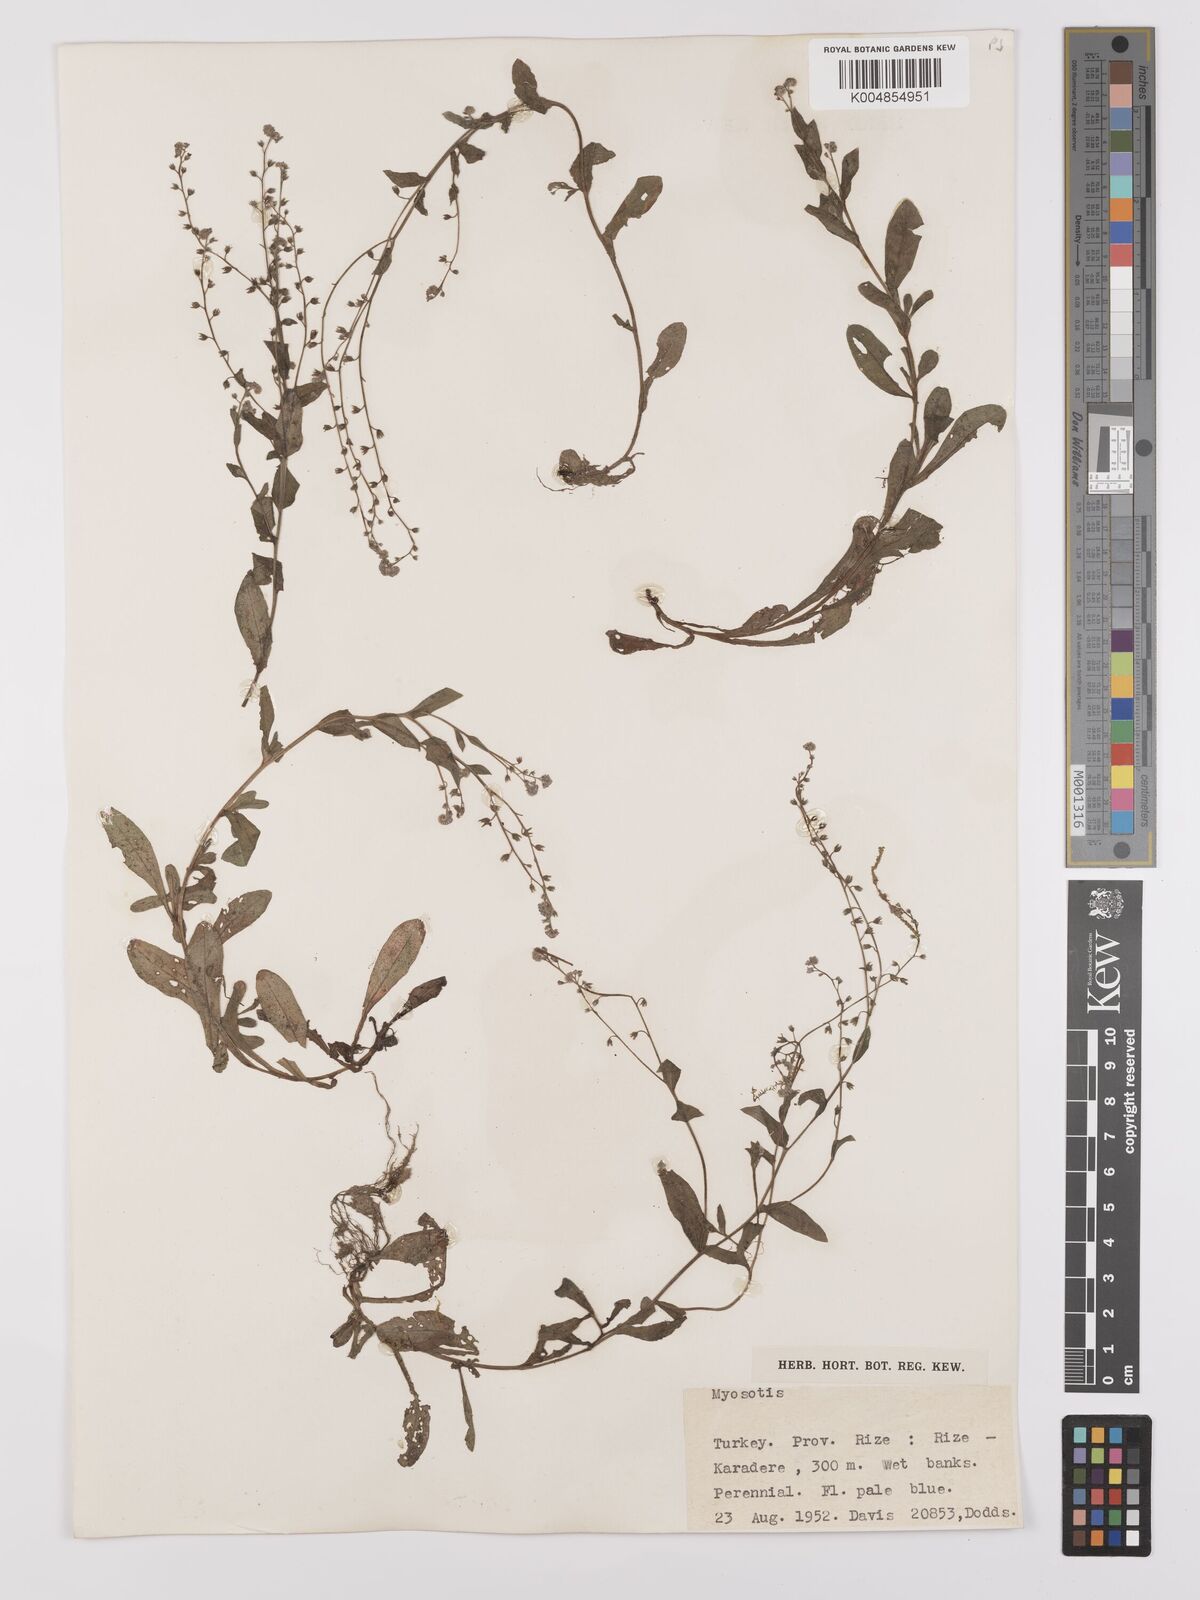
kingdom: Plantae
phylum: Tracheophyta
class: Magnoliopsida
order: Boraginales
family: Boraginaceae
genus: Myosotis
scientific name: Myosotis
